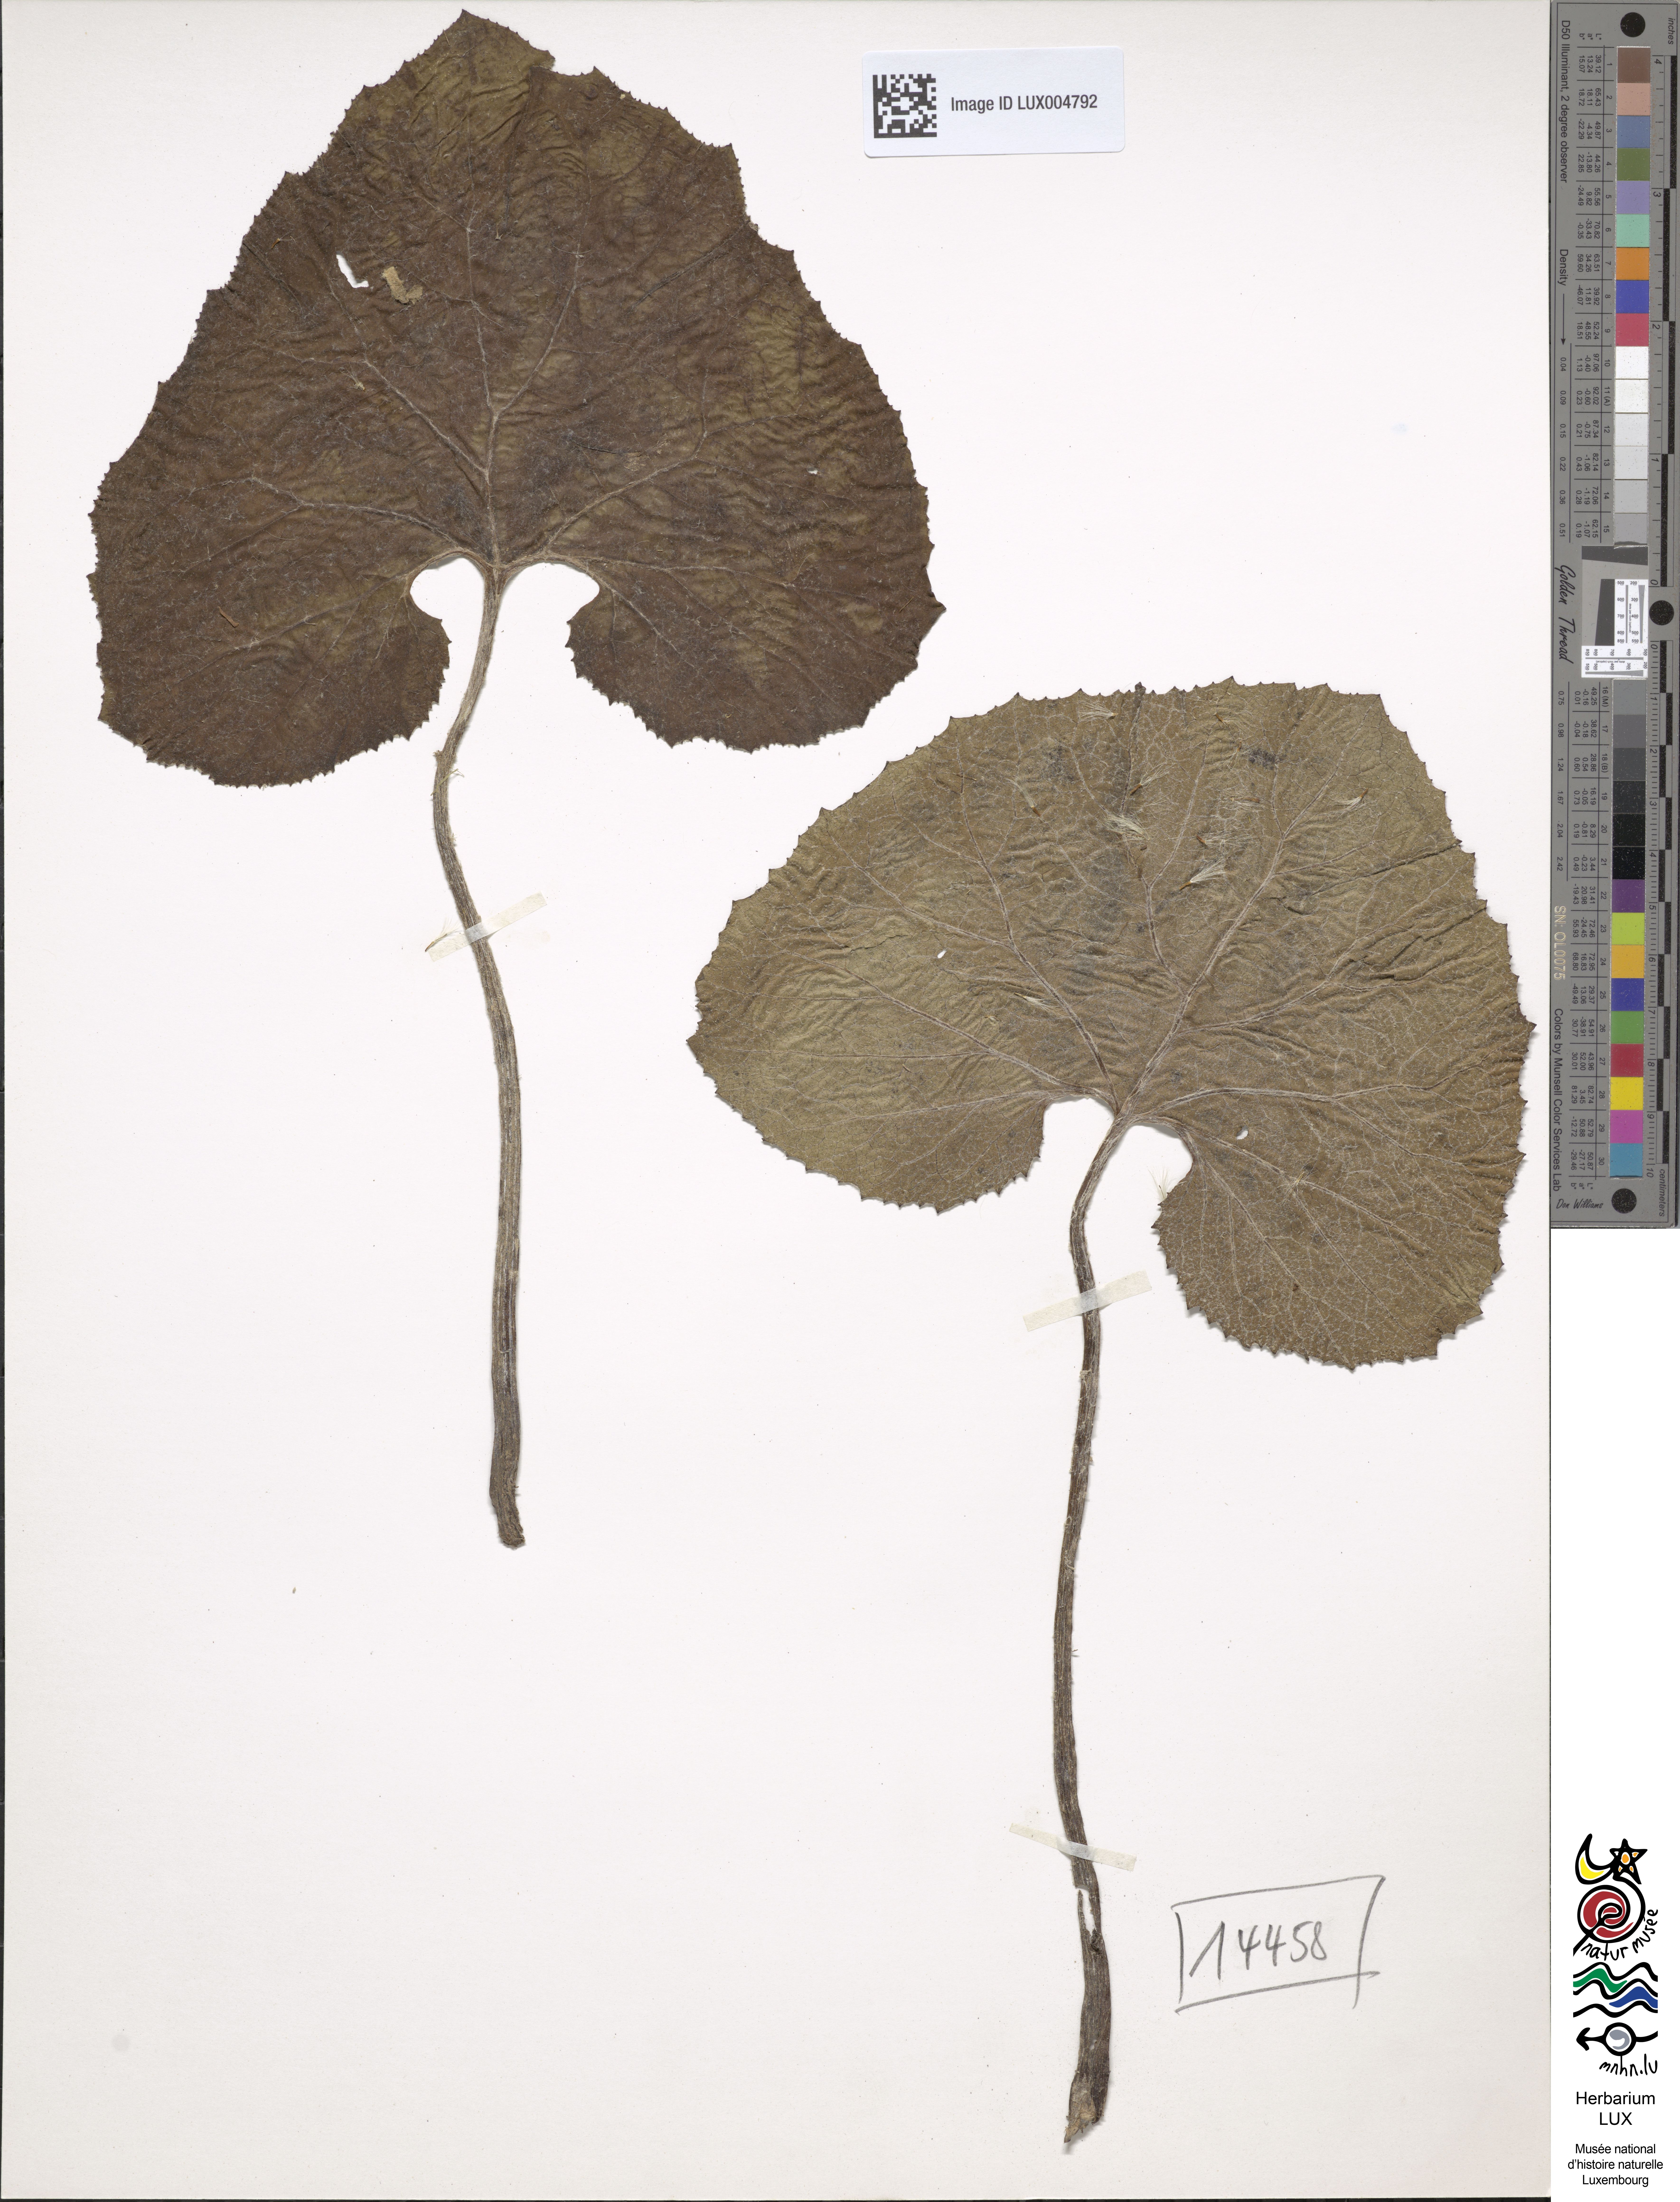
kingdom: Plantae
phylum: Tracheophyta
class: Magnoliopsida
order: Asterales
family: Asteraceae
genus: Petasites
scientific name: Petasites hybridus
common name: Butterbur
